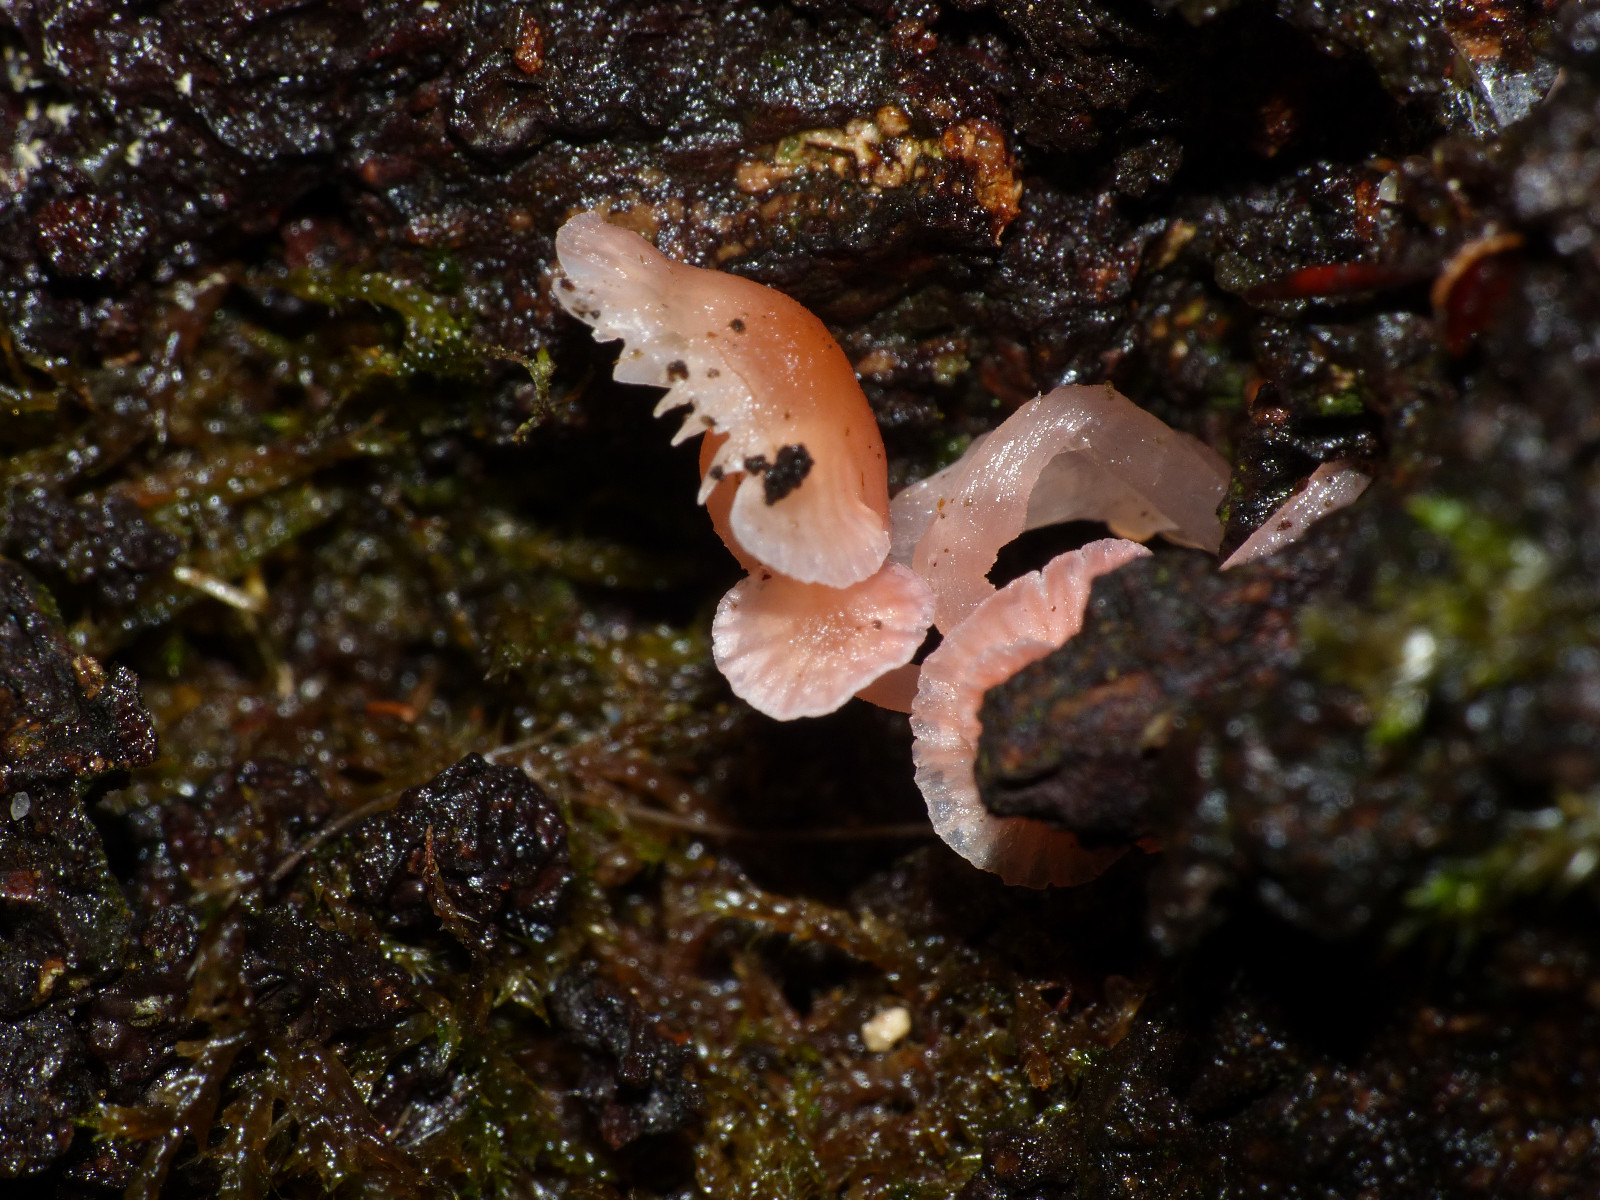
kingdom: Fungi
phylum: Basidiomycota
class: Agaricomycetes
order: Agaricales
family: Mycenaceae
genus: Mycena
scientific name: Mycena coccinea
